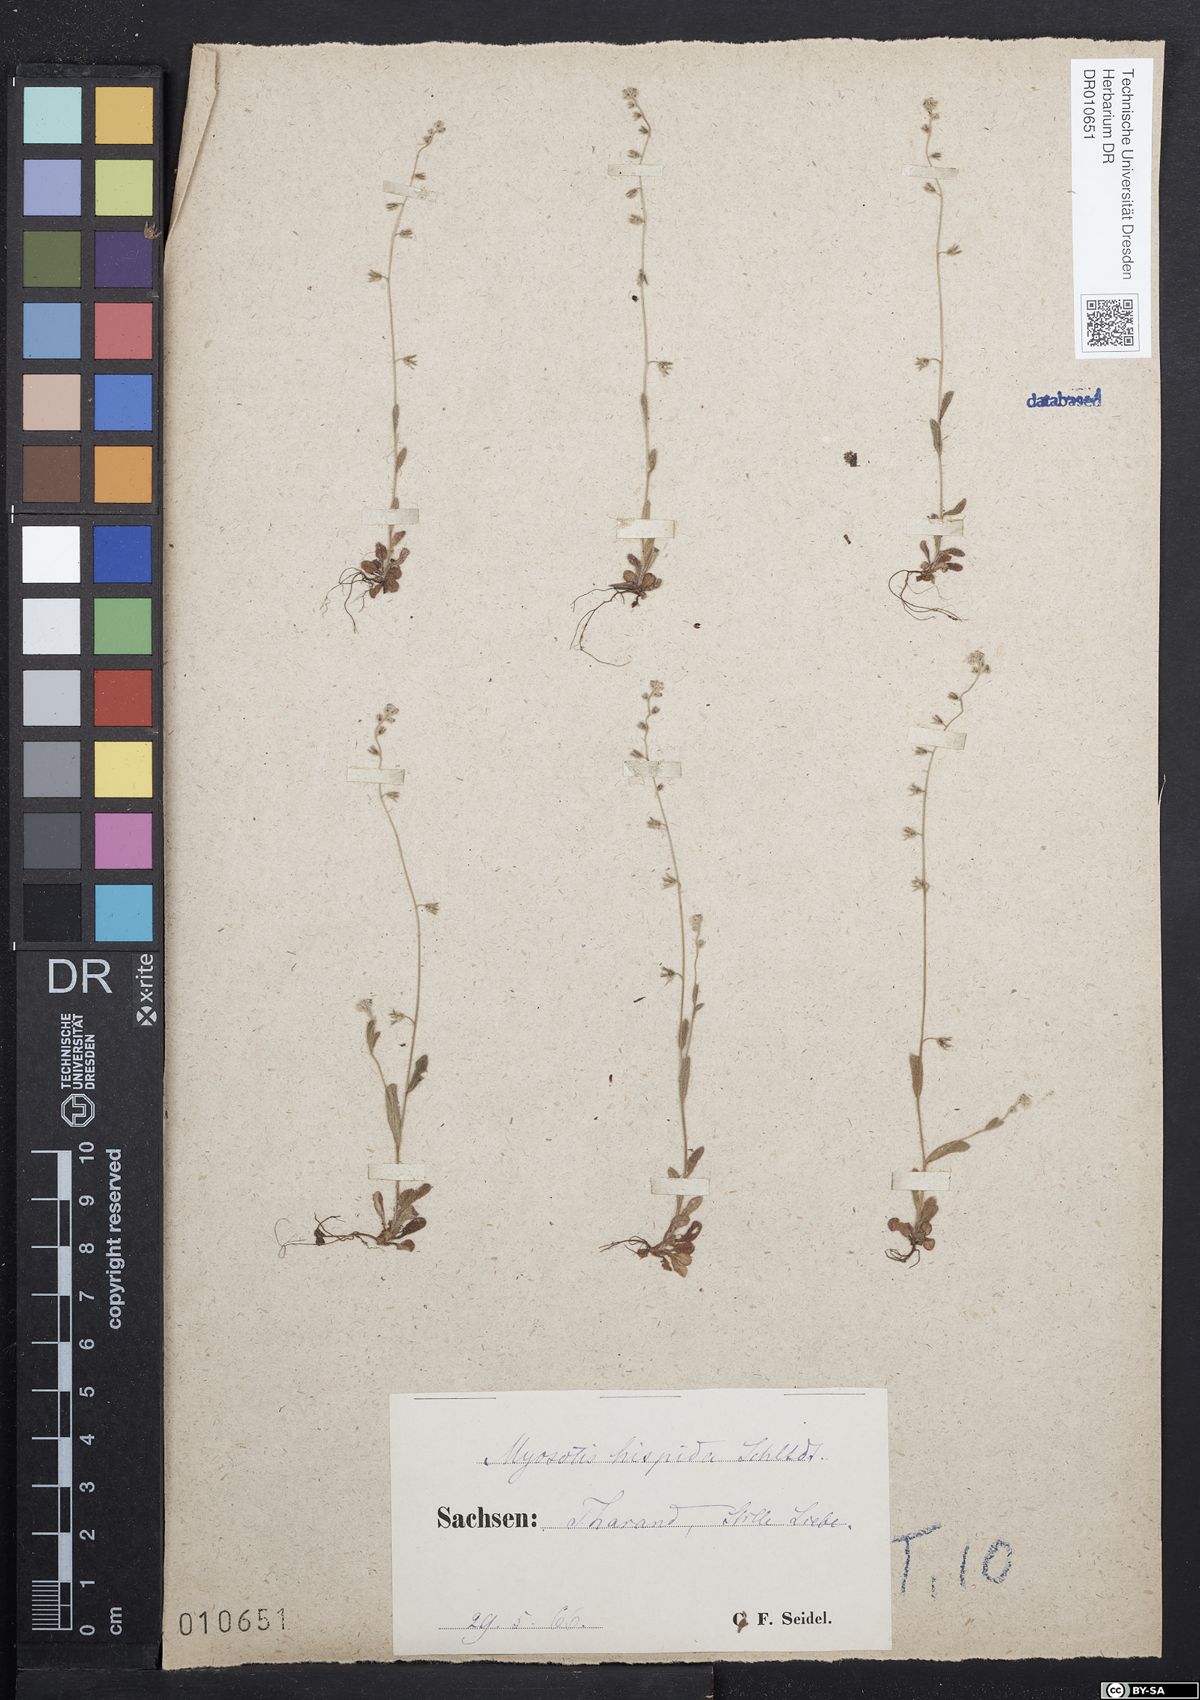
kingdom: Plantae
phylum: Tracheophyta
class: Magnoliopsida
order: Boraginales
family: Boraginaceae
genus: Myosotis
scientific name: Myosotis ramosissima
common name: Early forget-me-not
